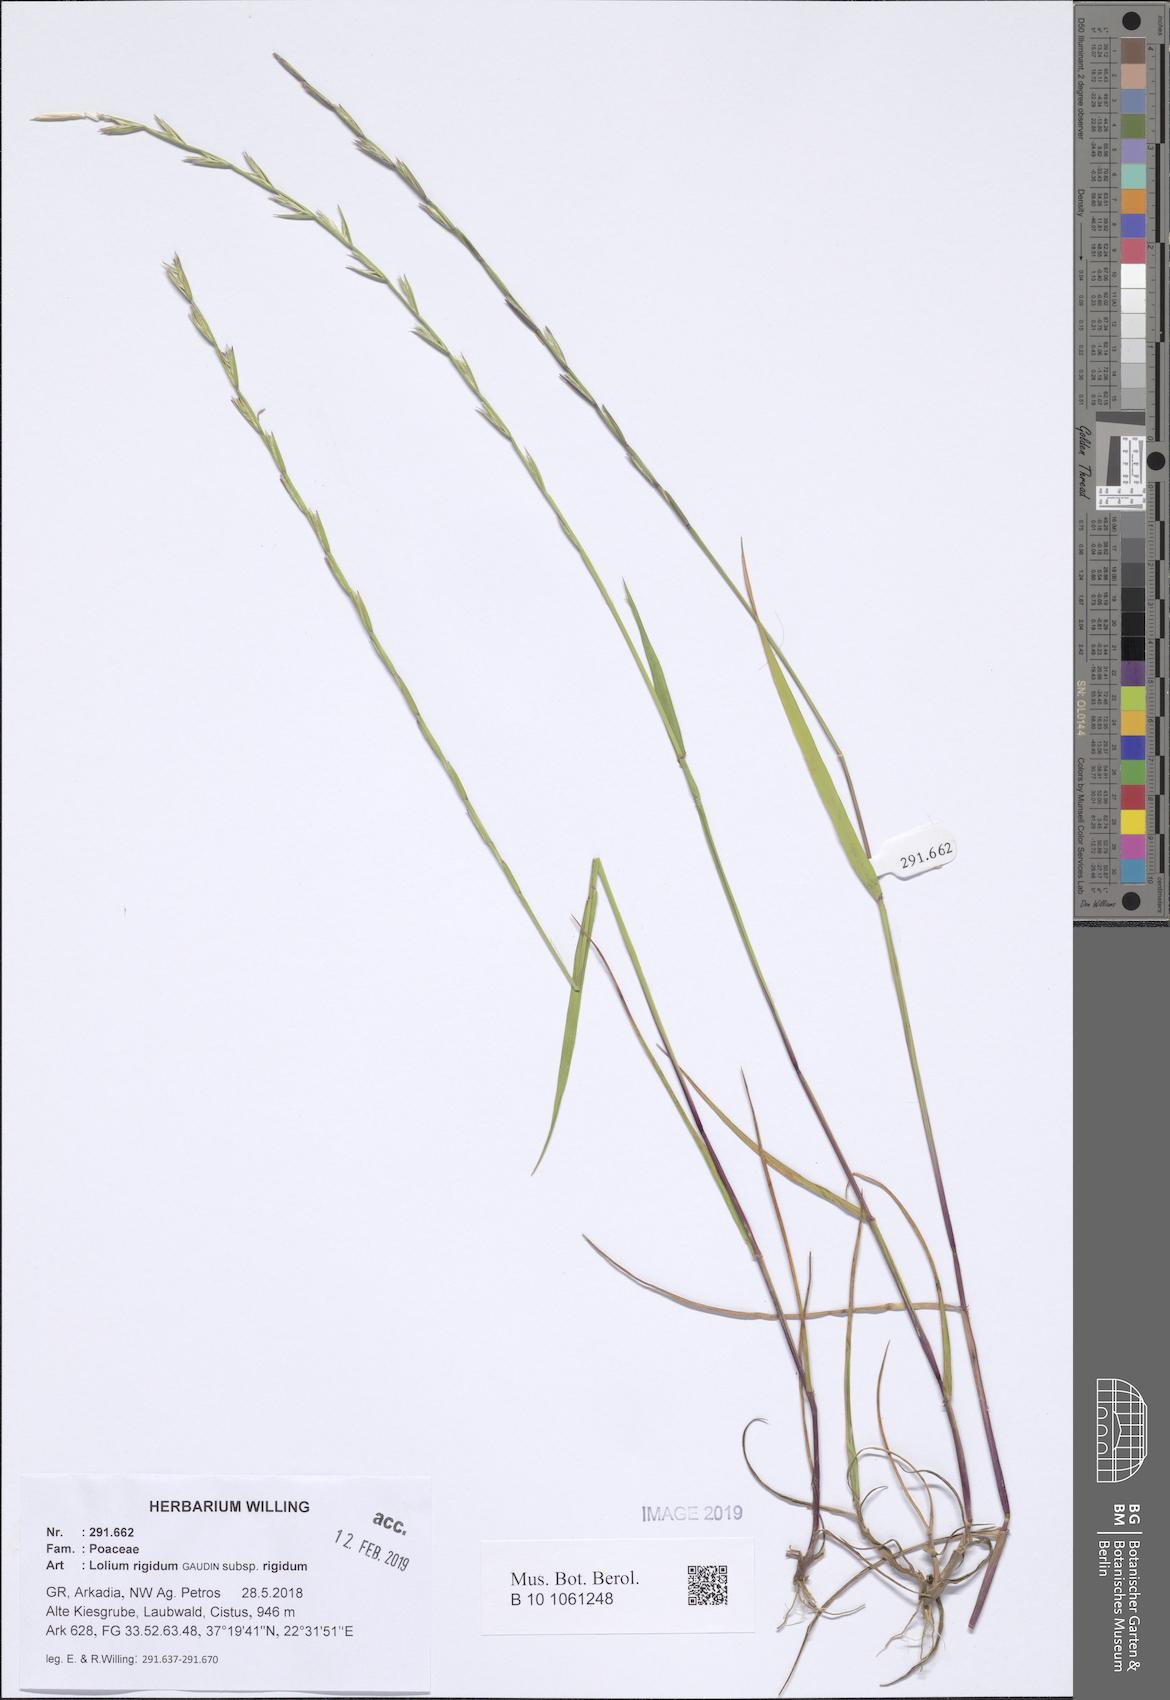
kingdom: Plantae
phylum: Tracheophyta
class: Liliopsida
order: Poales
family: Poaceae
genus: Lolium
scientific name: Lolium rigidum
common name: Wimmera ryegrass
